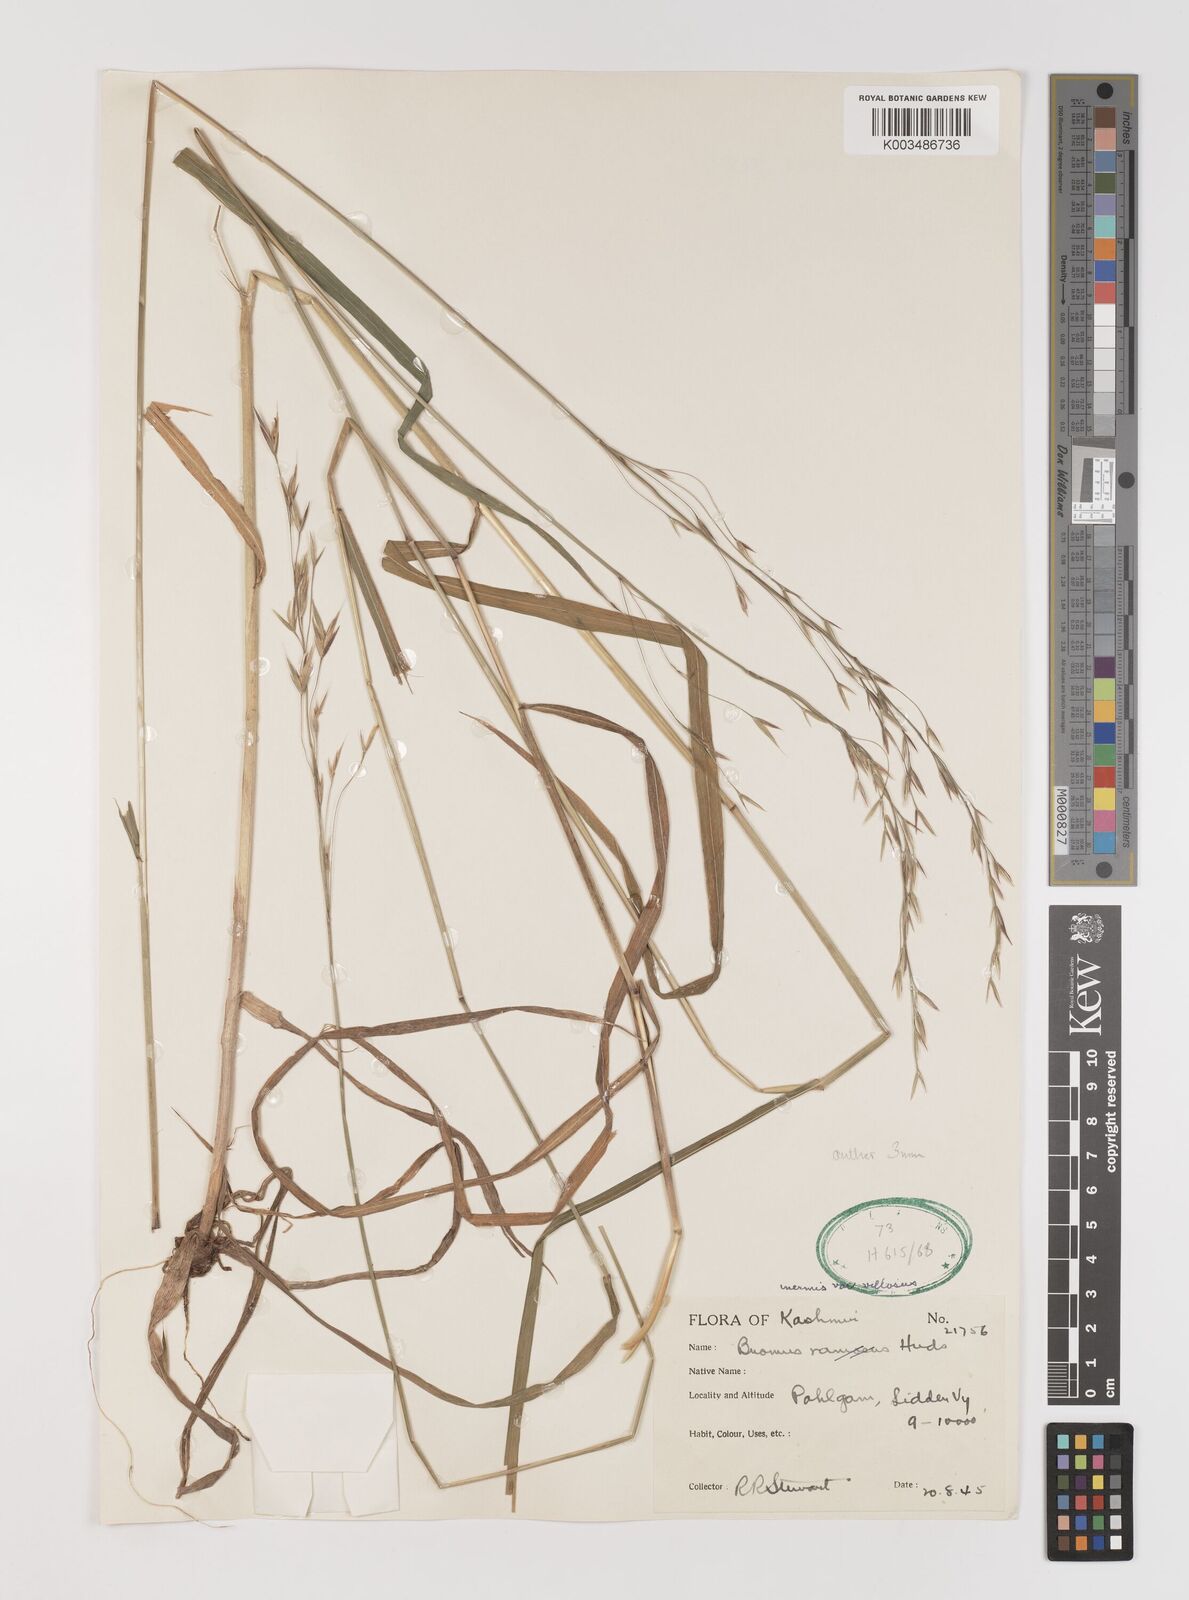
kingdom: Plantae
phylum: Tracheophyta
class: Liliopsida
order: Poales
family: Poaceae
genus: Brachypodium
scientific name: Brachypodium retusum
